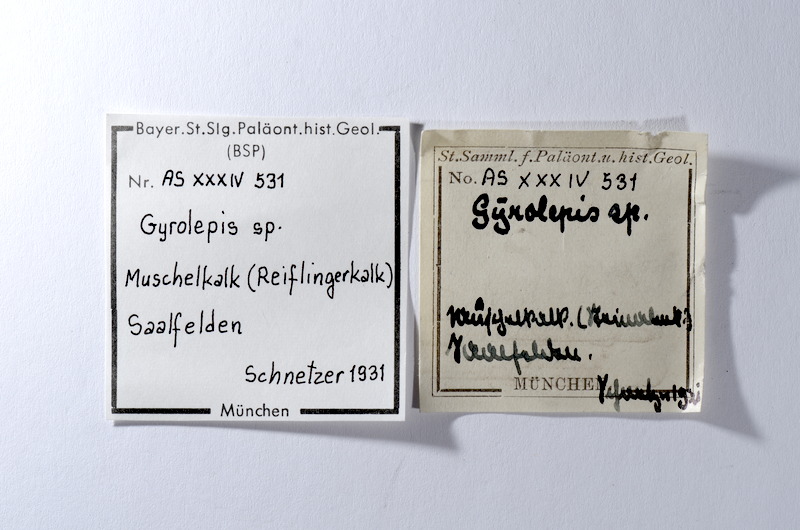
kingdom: Animalia
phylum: Chordata
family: Palaeoniscidae
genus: Gyrolepis
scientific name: Gyrolepis
